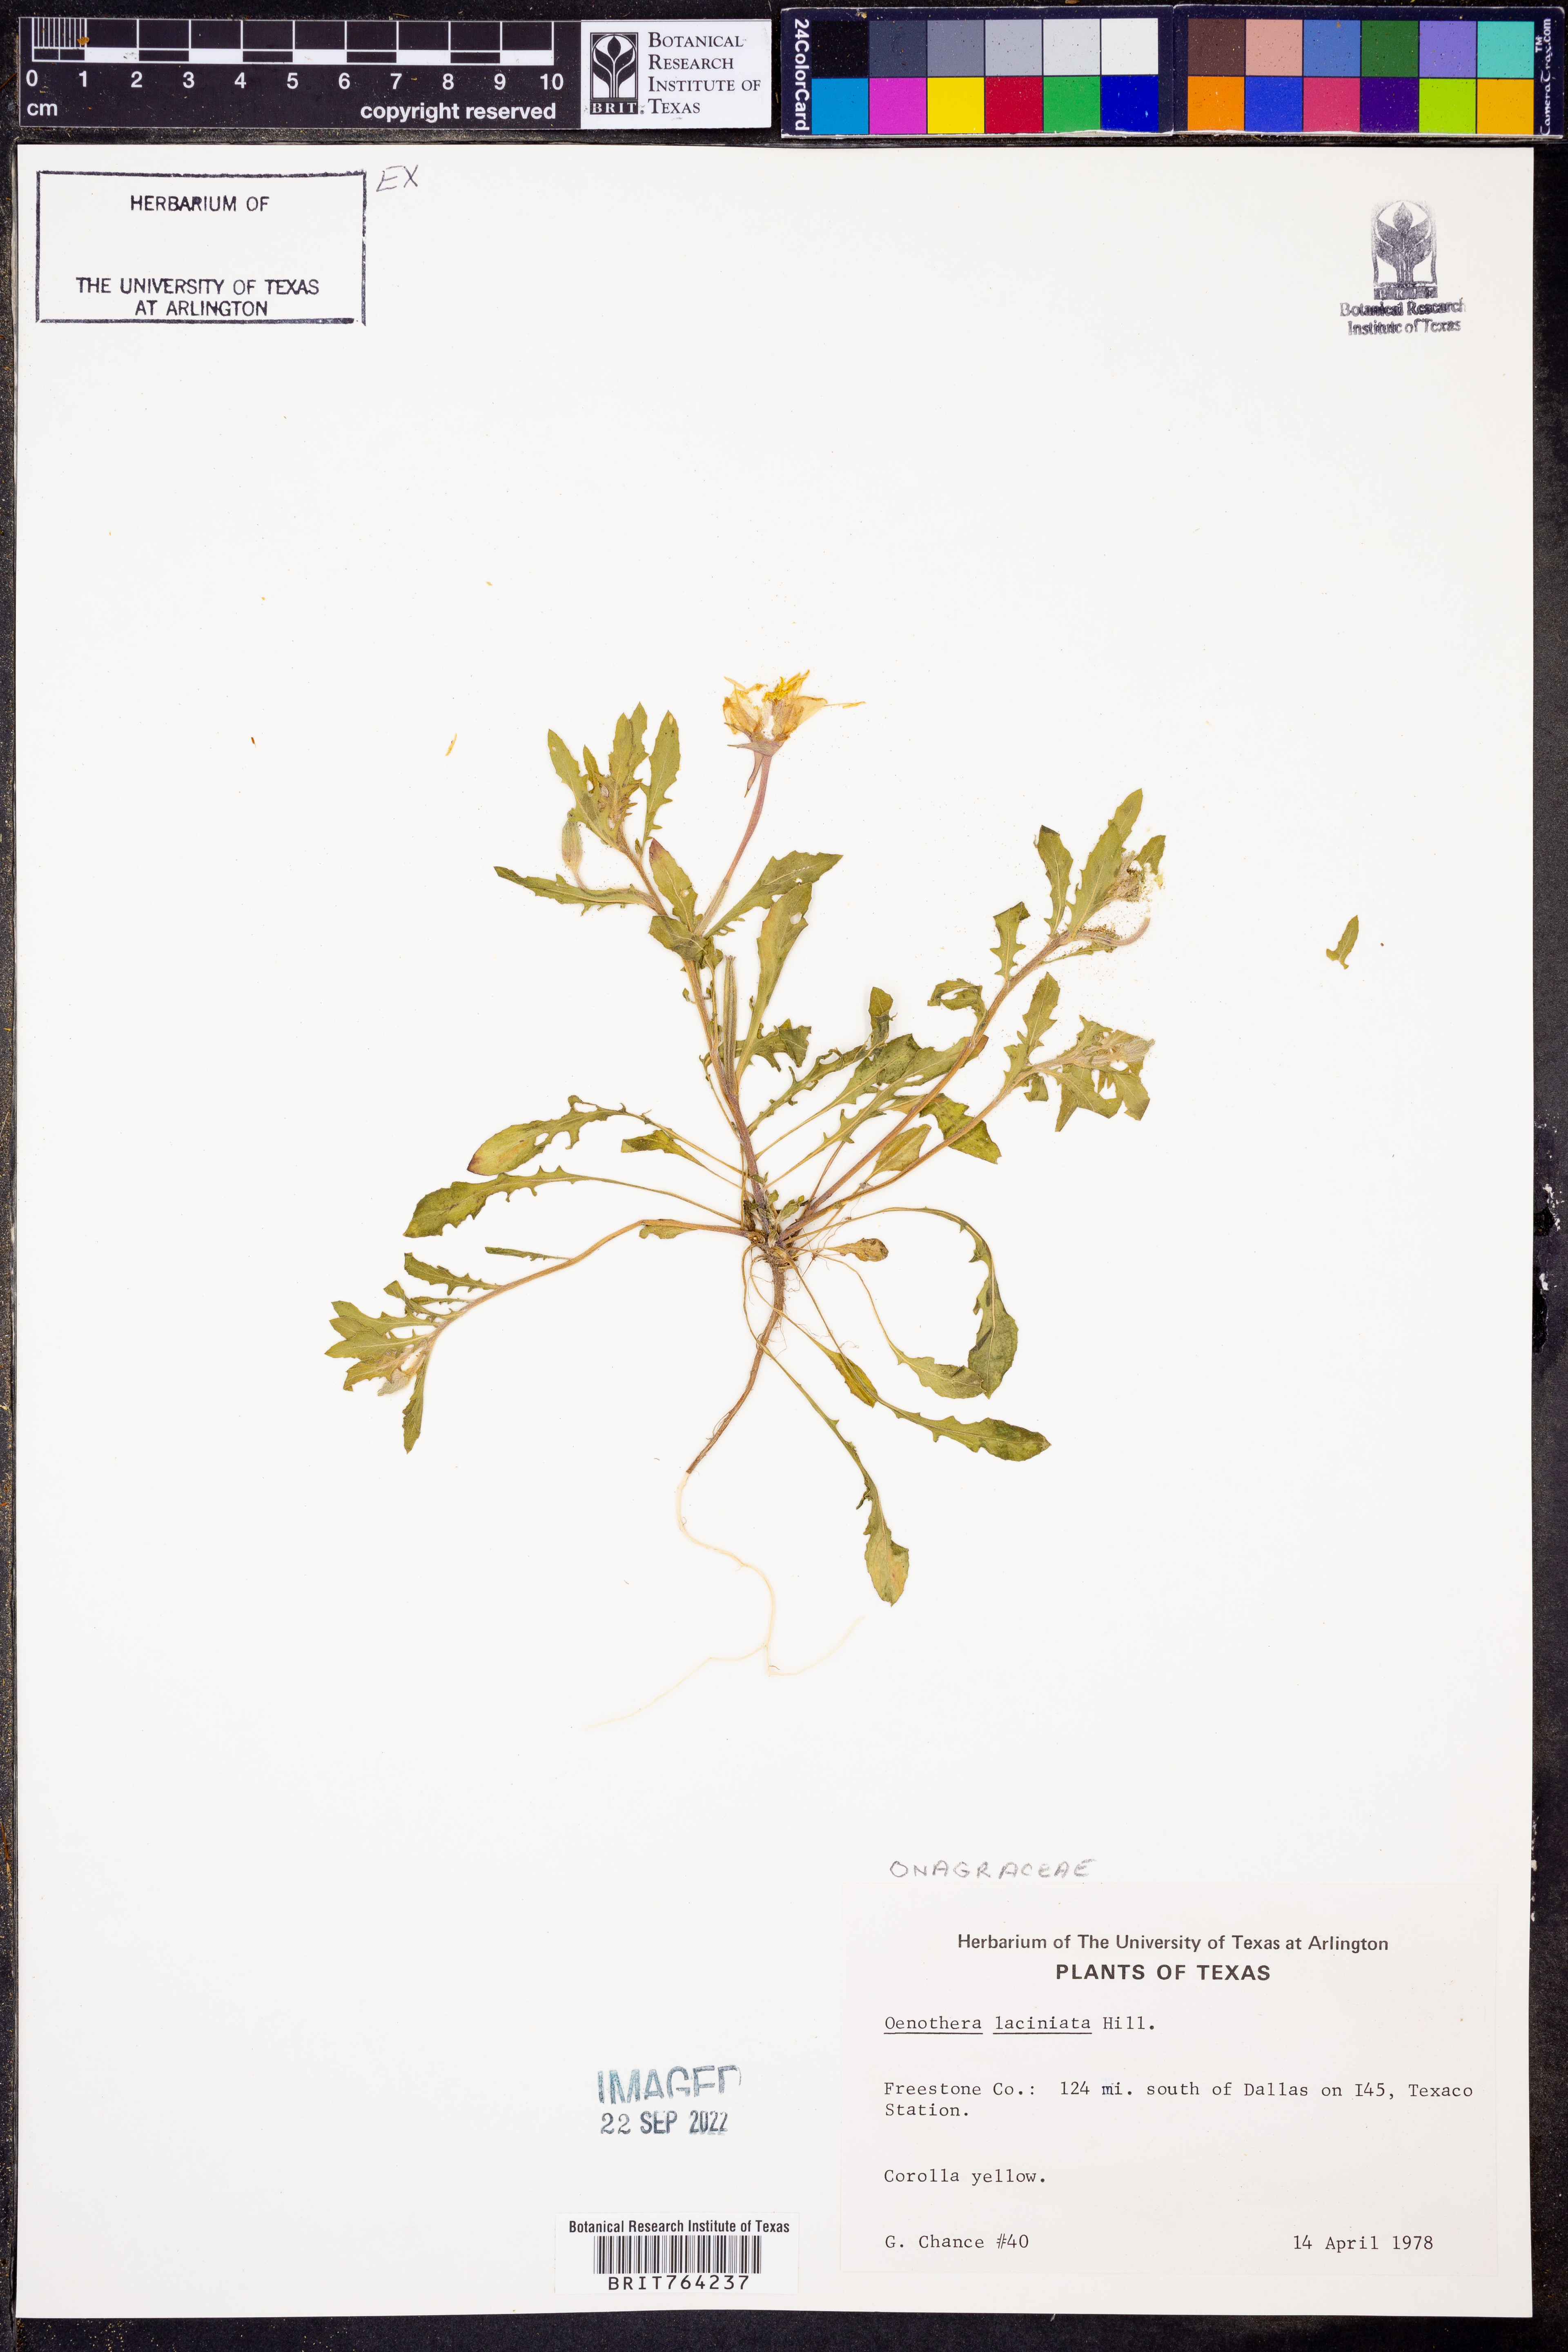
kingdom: Plantae
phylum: Tracheophyta
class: Magnoliopsida
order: Myrtales
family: Onagraceae
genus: Oenothera
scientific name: Oenothera laciniata
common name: Cut-leaved evening-primrose
